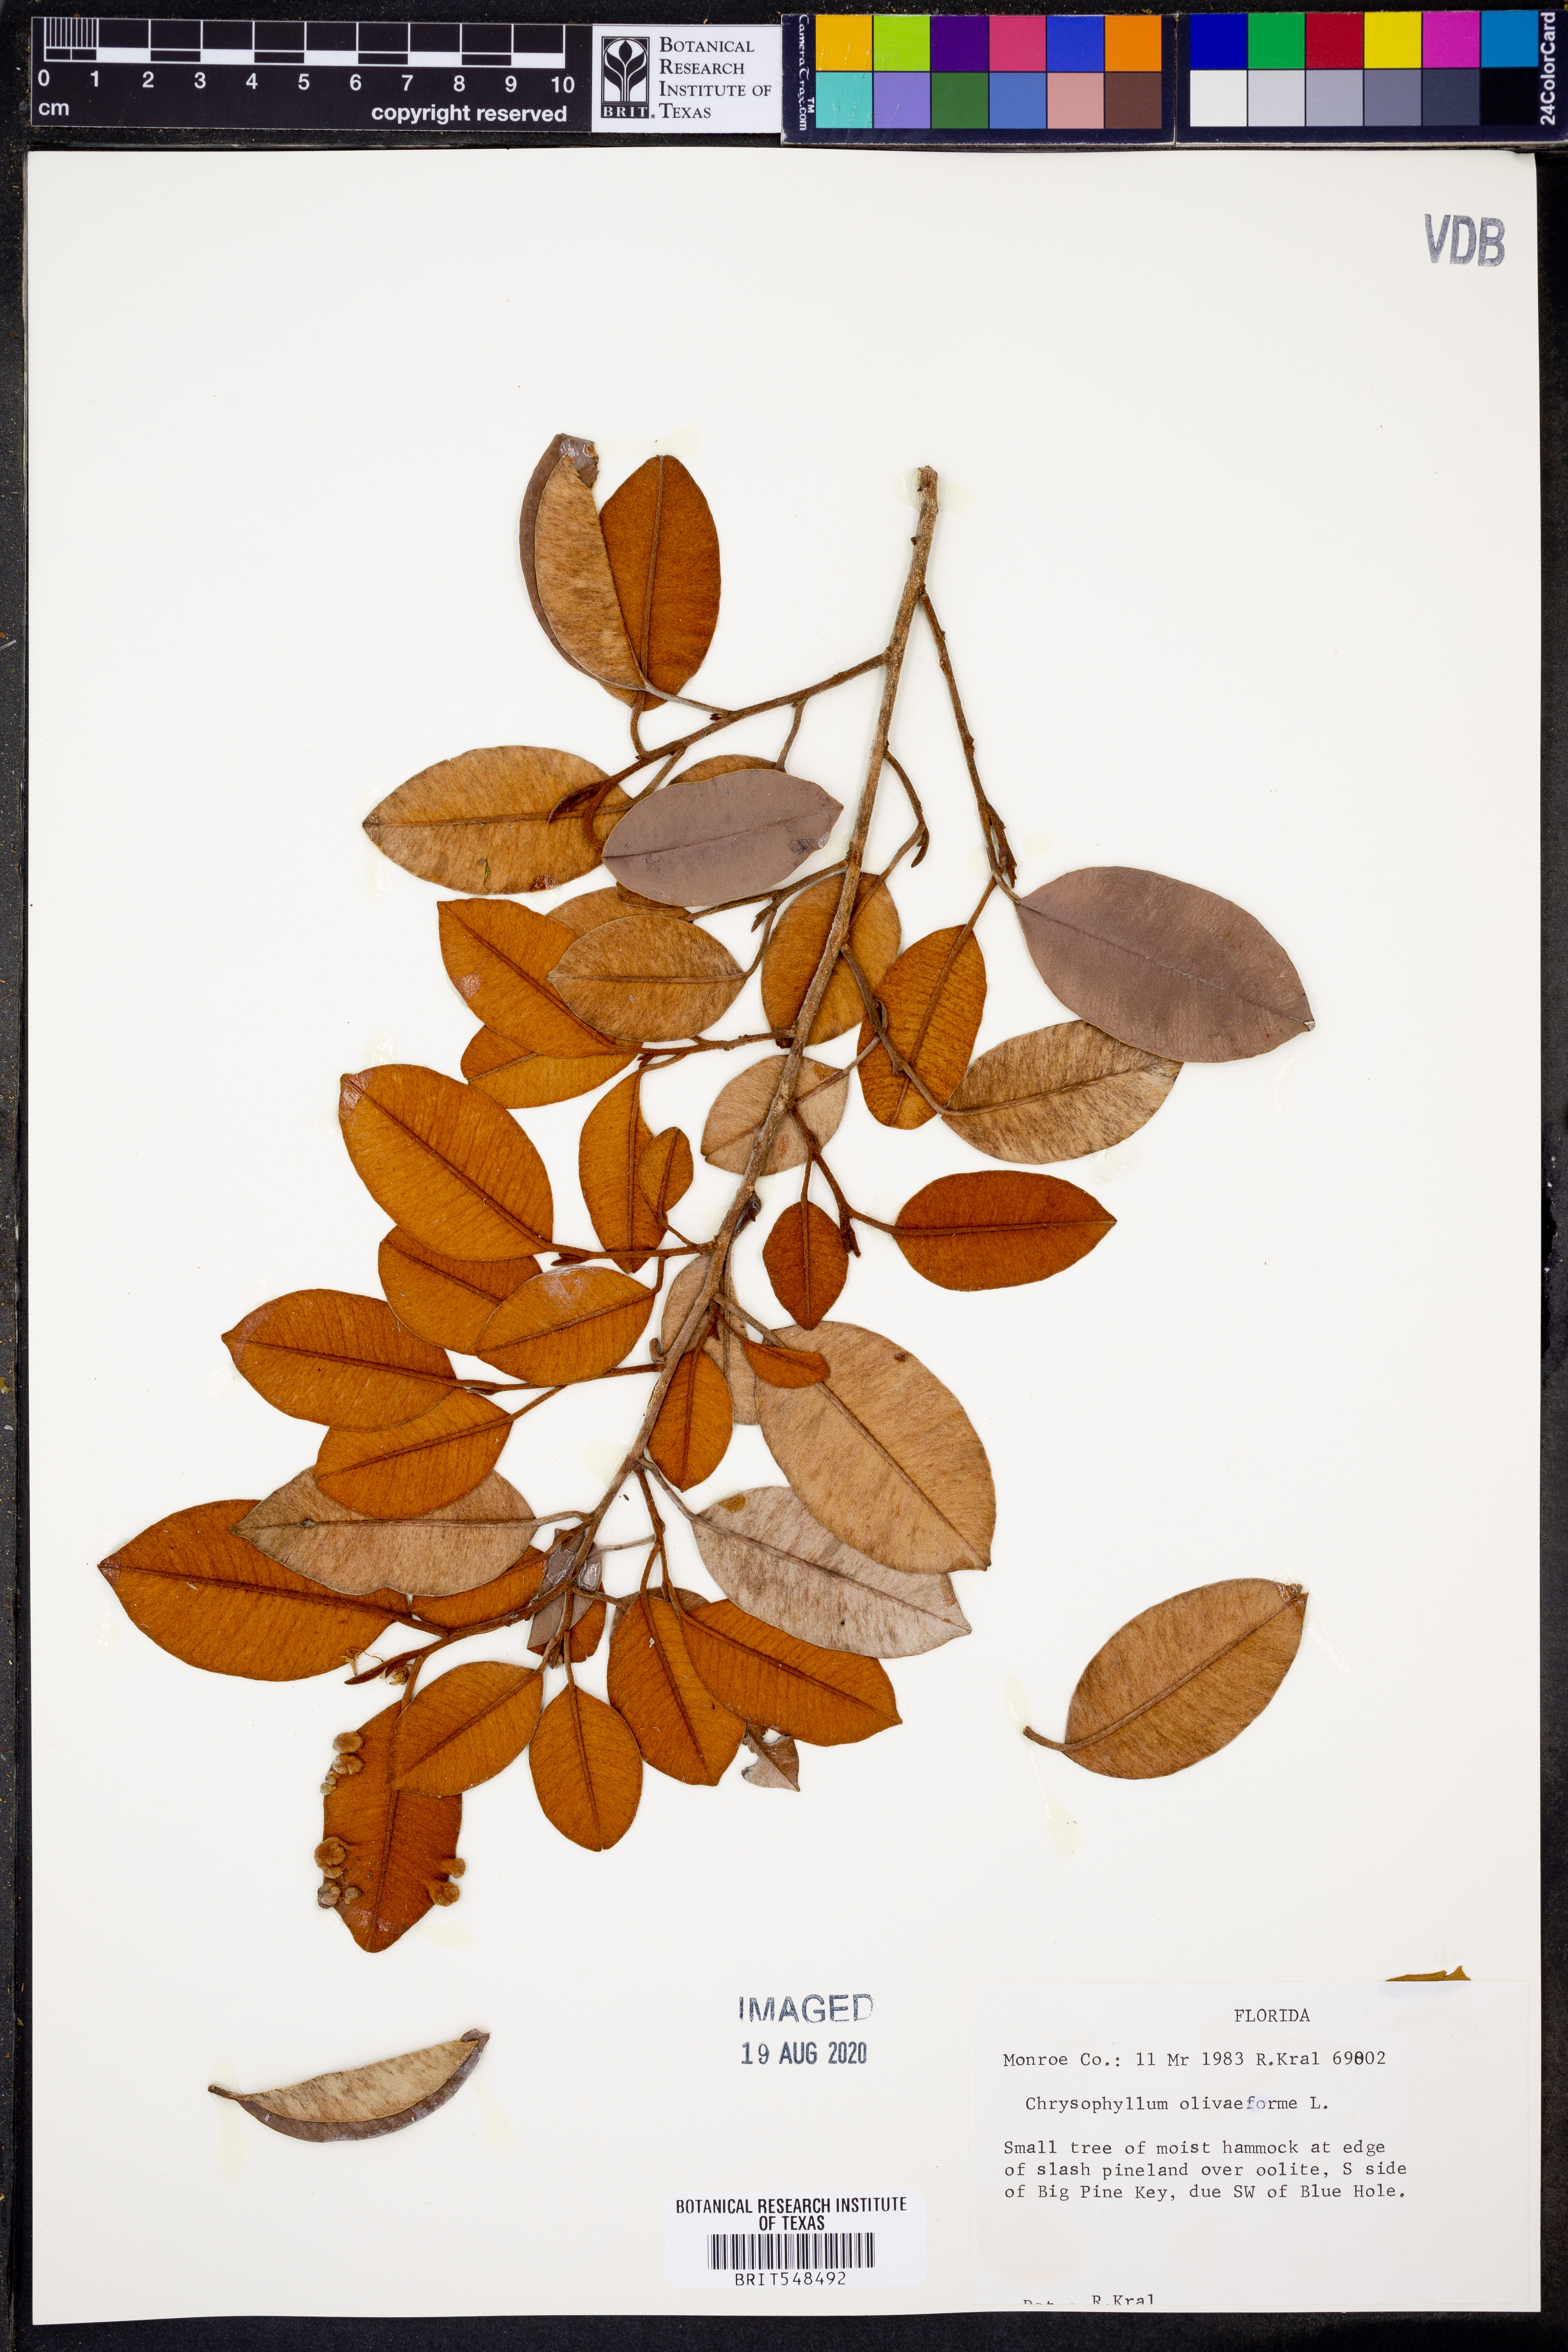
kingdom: Plantae
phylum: Tracheophyta
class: Magnoliopsida
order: Ericales
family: Sapotaceae
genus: Chrysophyllum
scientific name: Chrysophyllum oliviforme
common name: Satinleaf
